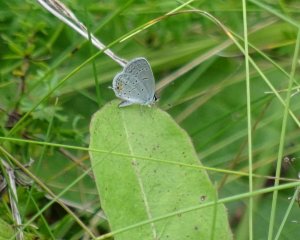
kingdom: Animalia
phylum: Arthropoda
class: Insecta
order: Lepidoptera
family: Lycaenidae
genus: Elkalyce
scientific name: Elkalyce comyntas
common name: Eastern Tailed-Blue
